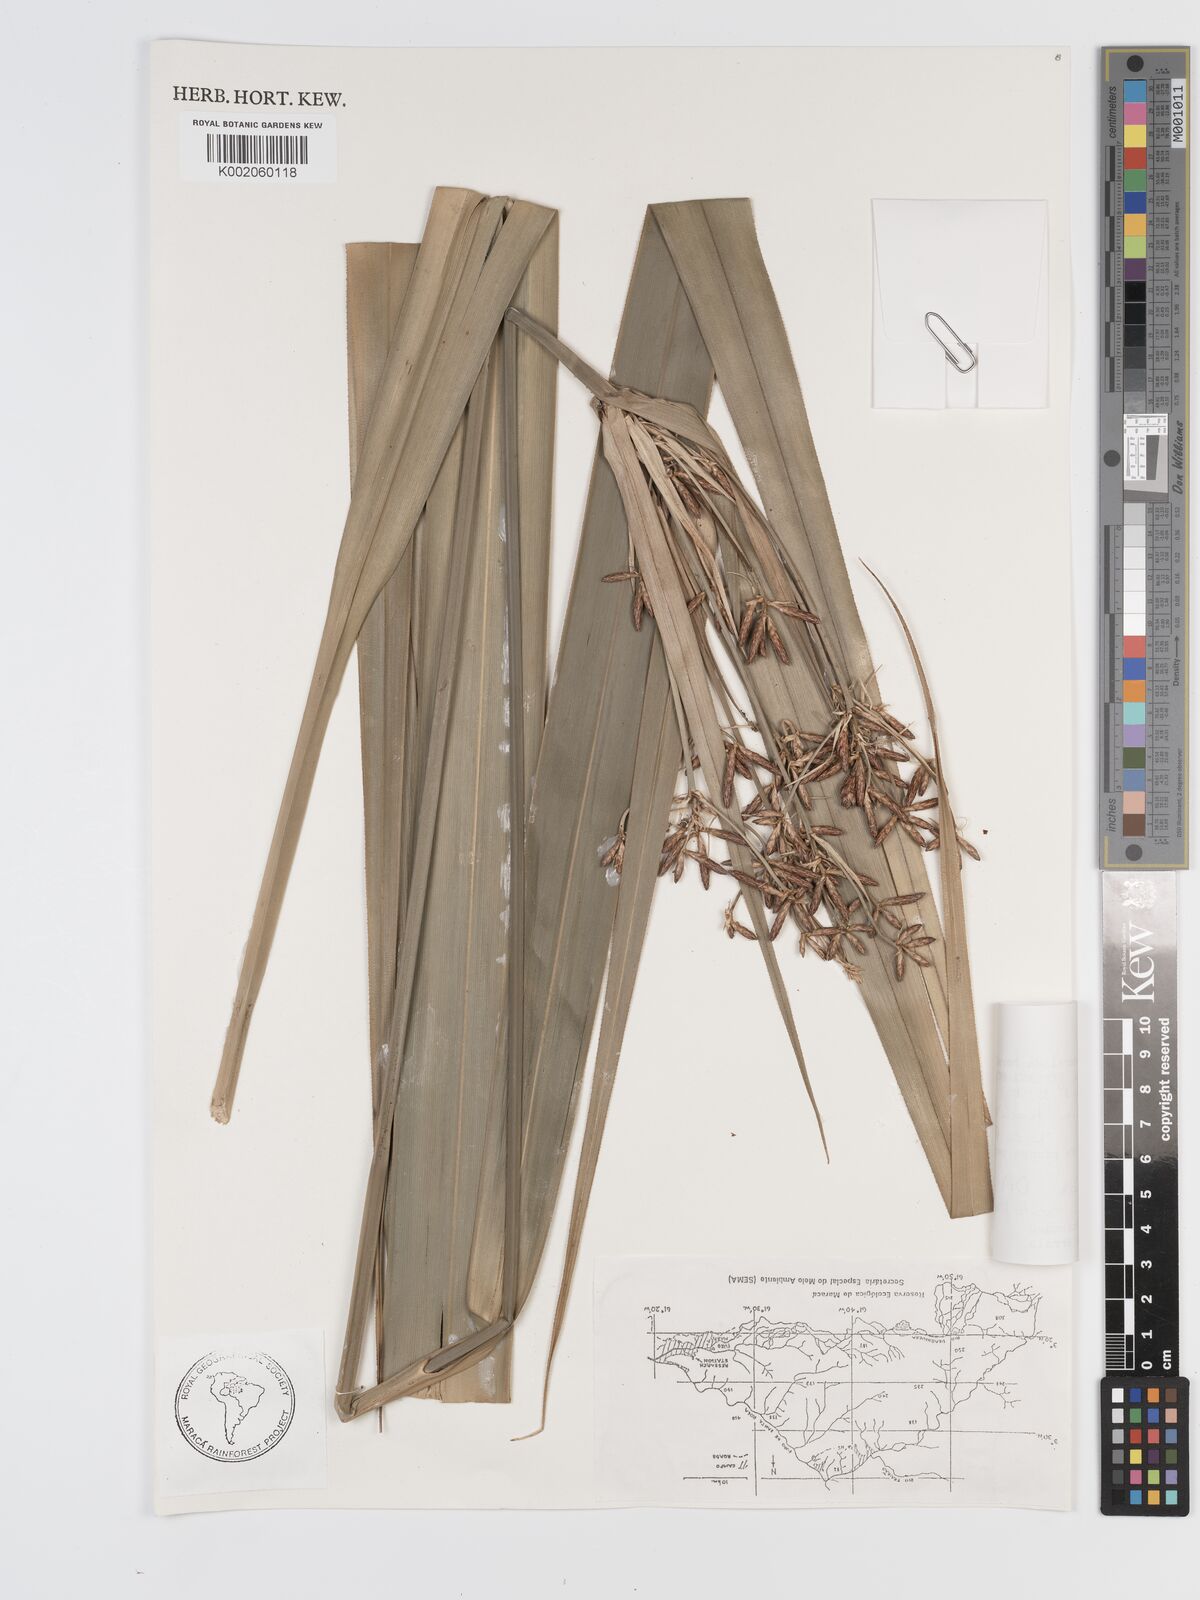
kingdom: Plantae
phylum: Tracheophyta
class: Liliopsida
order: Poales
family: Cyperaceae
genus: Diplasia
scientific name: Diplasia karatifolia
